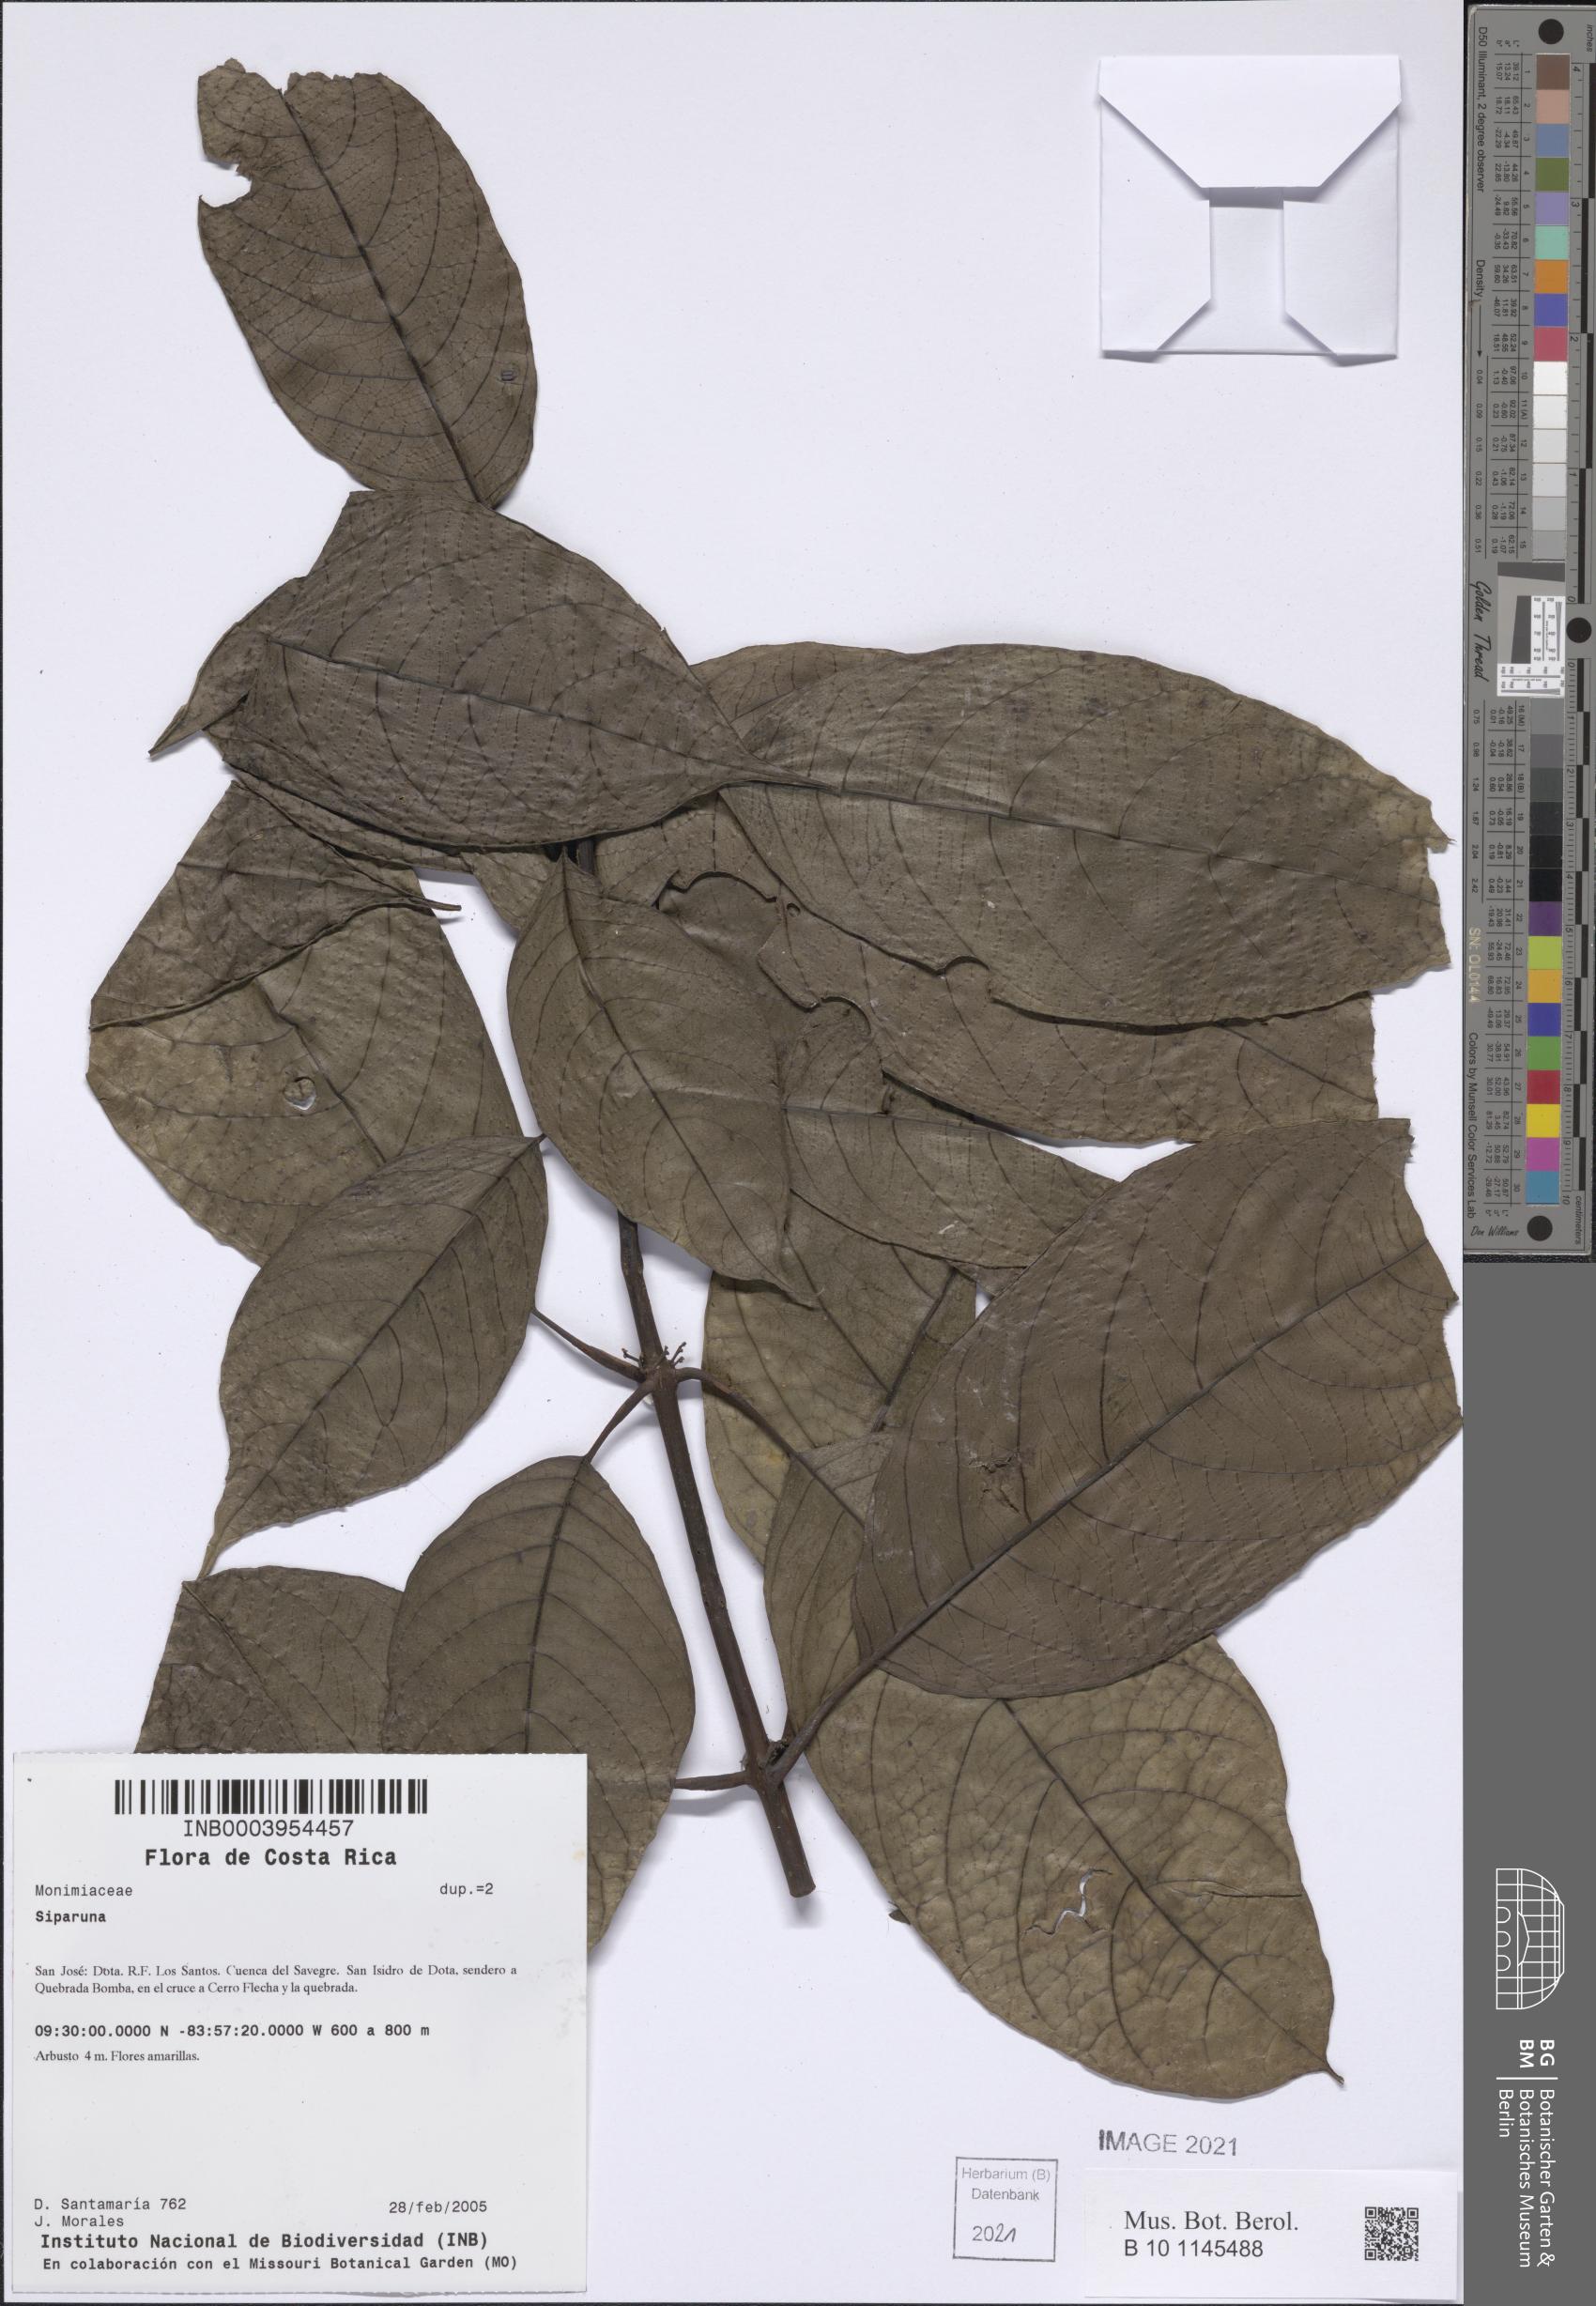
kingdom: Plantae
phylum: Tracheophyta
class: Magnoliopsida
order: Laurales
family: Siparunaceae
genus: Siparuna
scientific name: Siparuna
